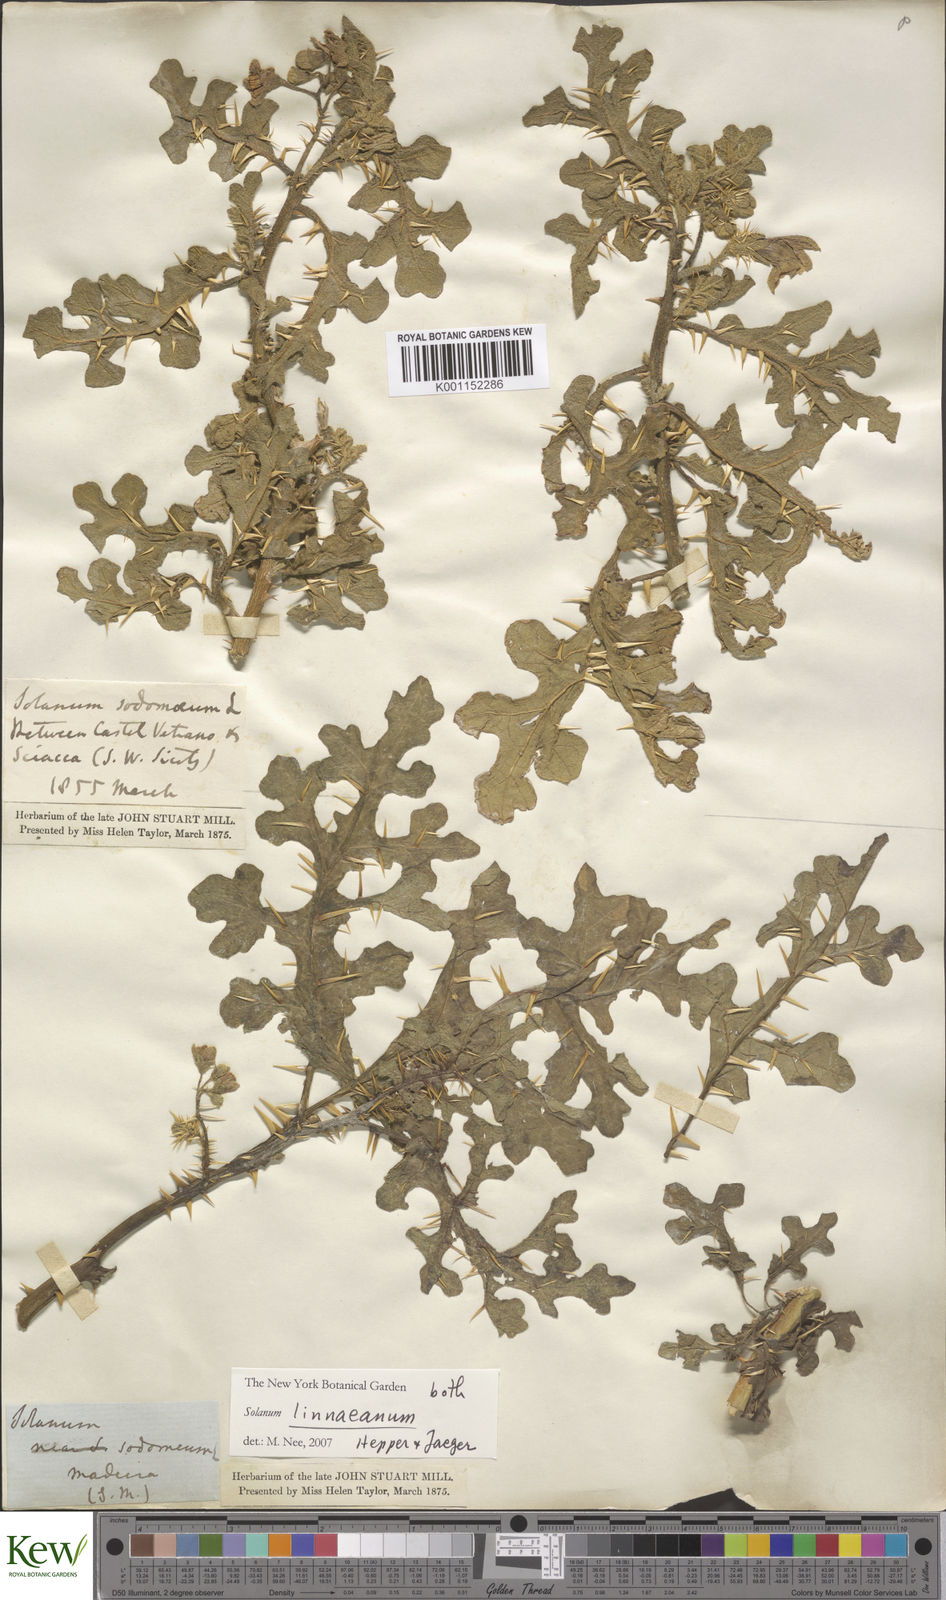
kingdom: Plantae
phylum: Tracheophyta
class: Magnoliopsida
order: Solanales
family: Solanaceae
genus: Solanum
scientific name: Solanum linnaeanum
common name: Nightshade
